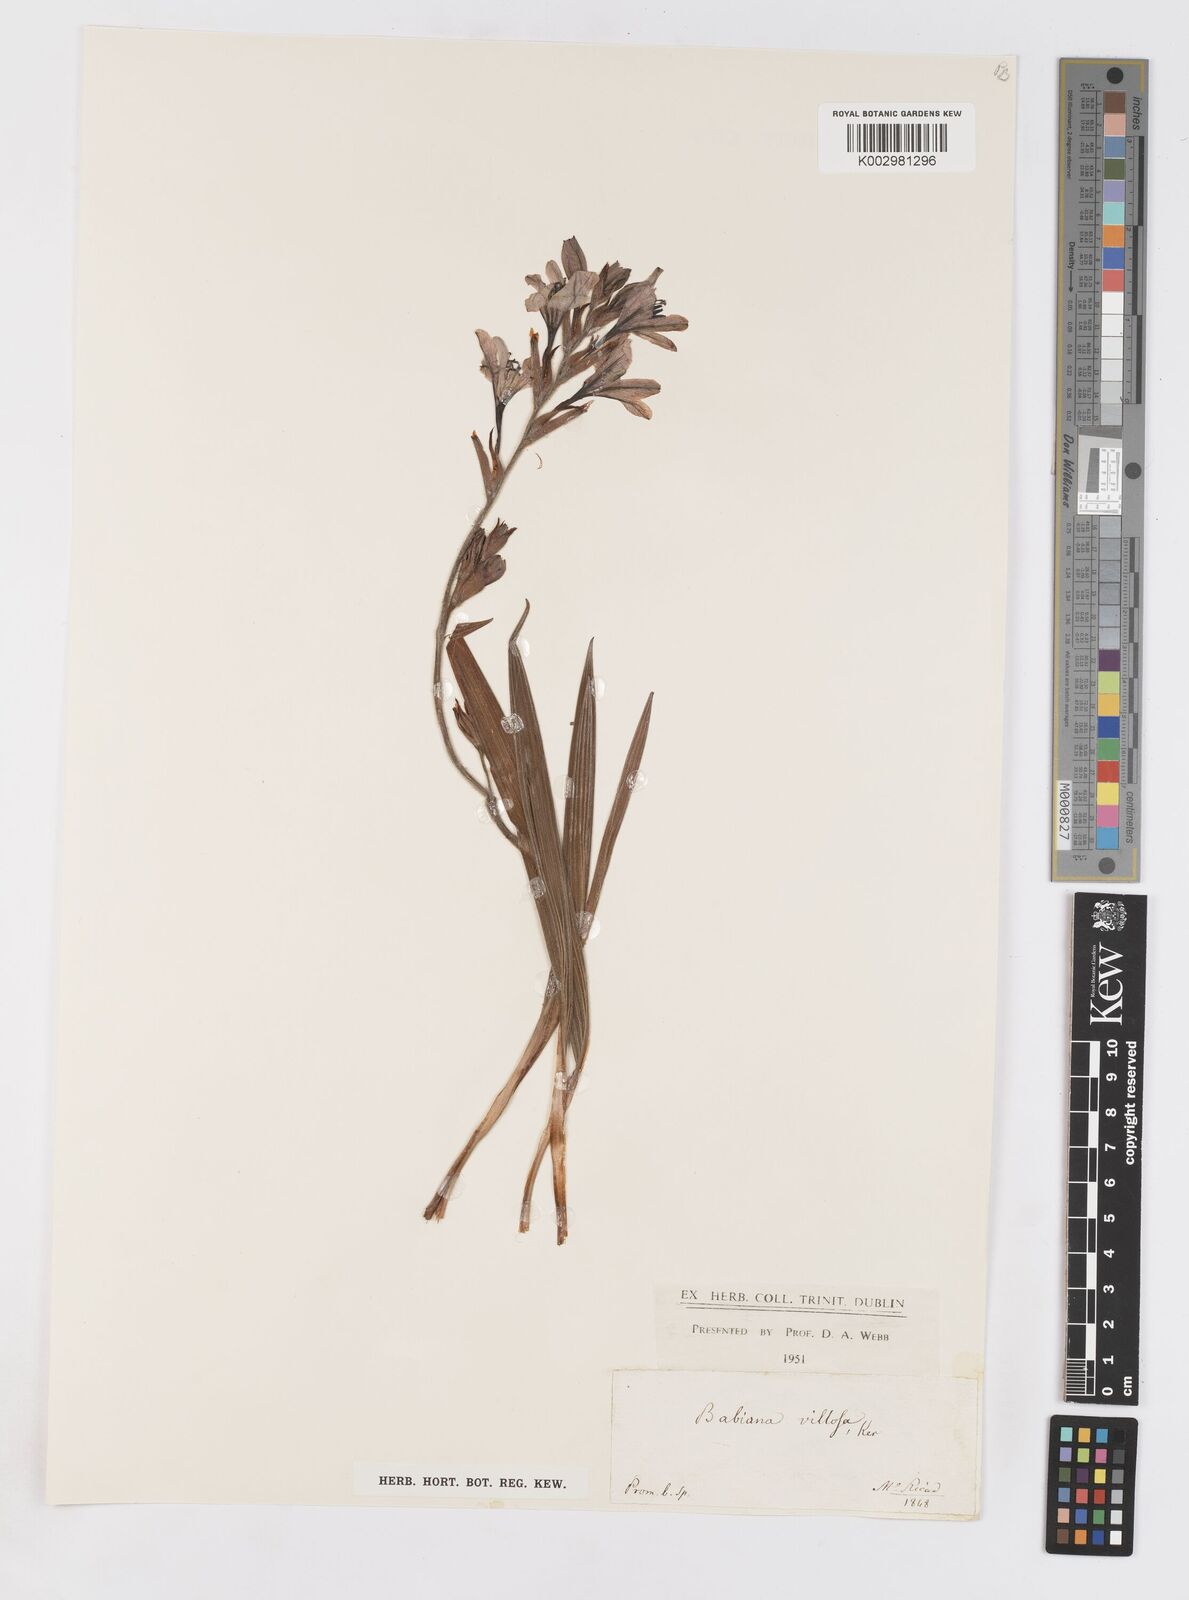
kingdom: Plantae
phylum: Tracheophyta
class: Liliopsida
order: Asparagales
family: Iridaceae
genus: Babiana
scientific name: Babiana nervosa
